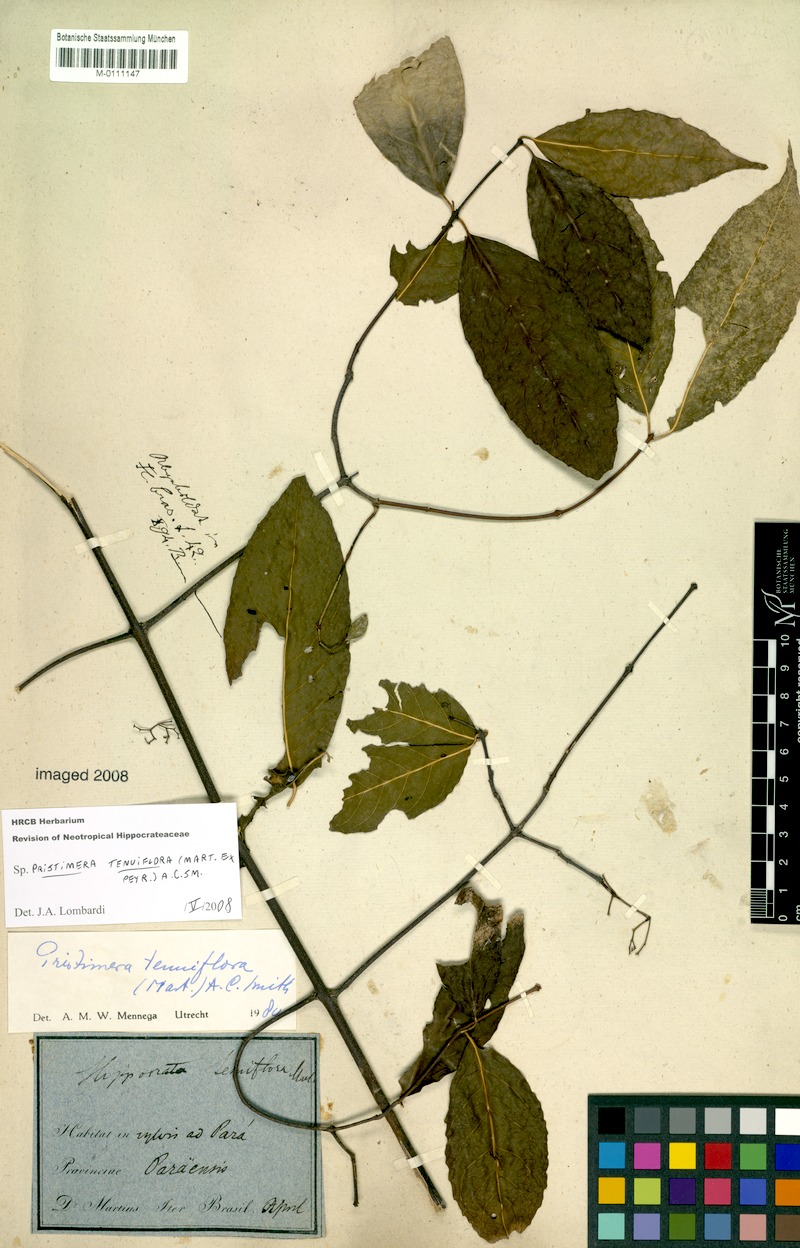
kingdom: Plantae
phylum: Tracheophyta
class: Magnoliopsida
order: Celastrales
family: Celastraceae
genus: Pristimera
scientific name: Pristimera tenuiflora
